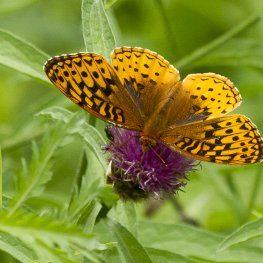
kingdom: Animalia
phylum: Arthropoda
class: Insecta
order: Lepidoptera
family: Nymphalidae
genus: Speyeria
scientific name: Speyeria cybele
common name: Great Spangled Fritillary
